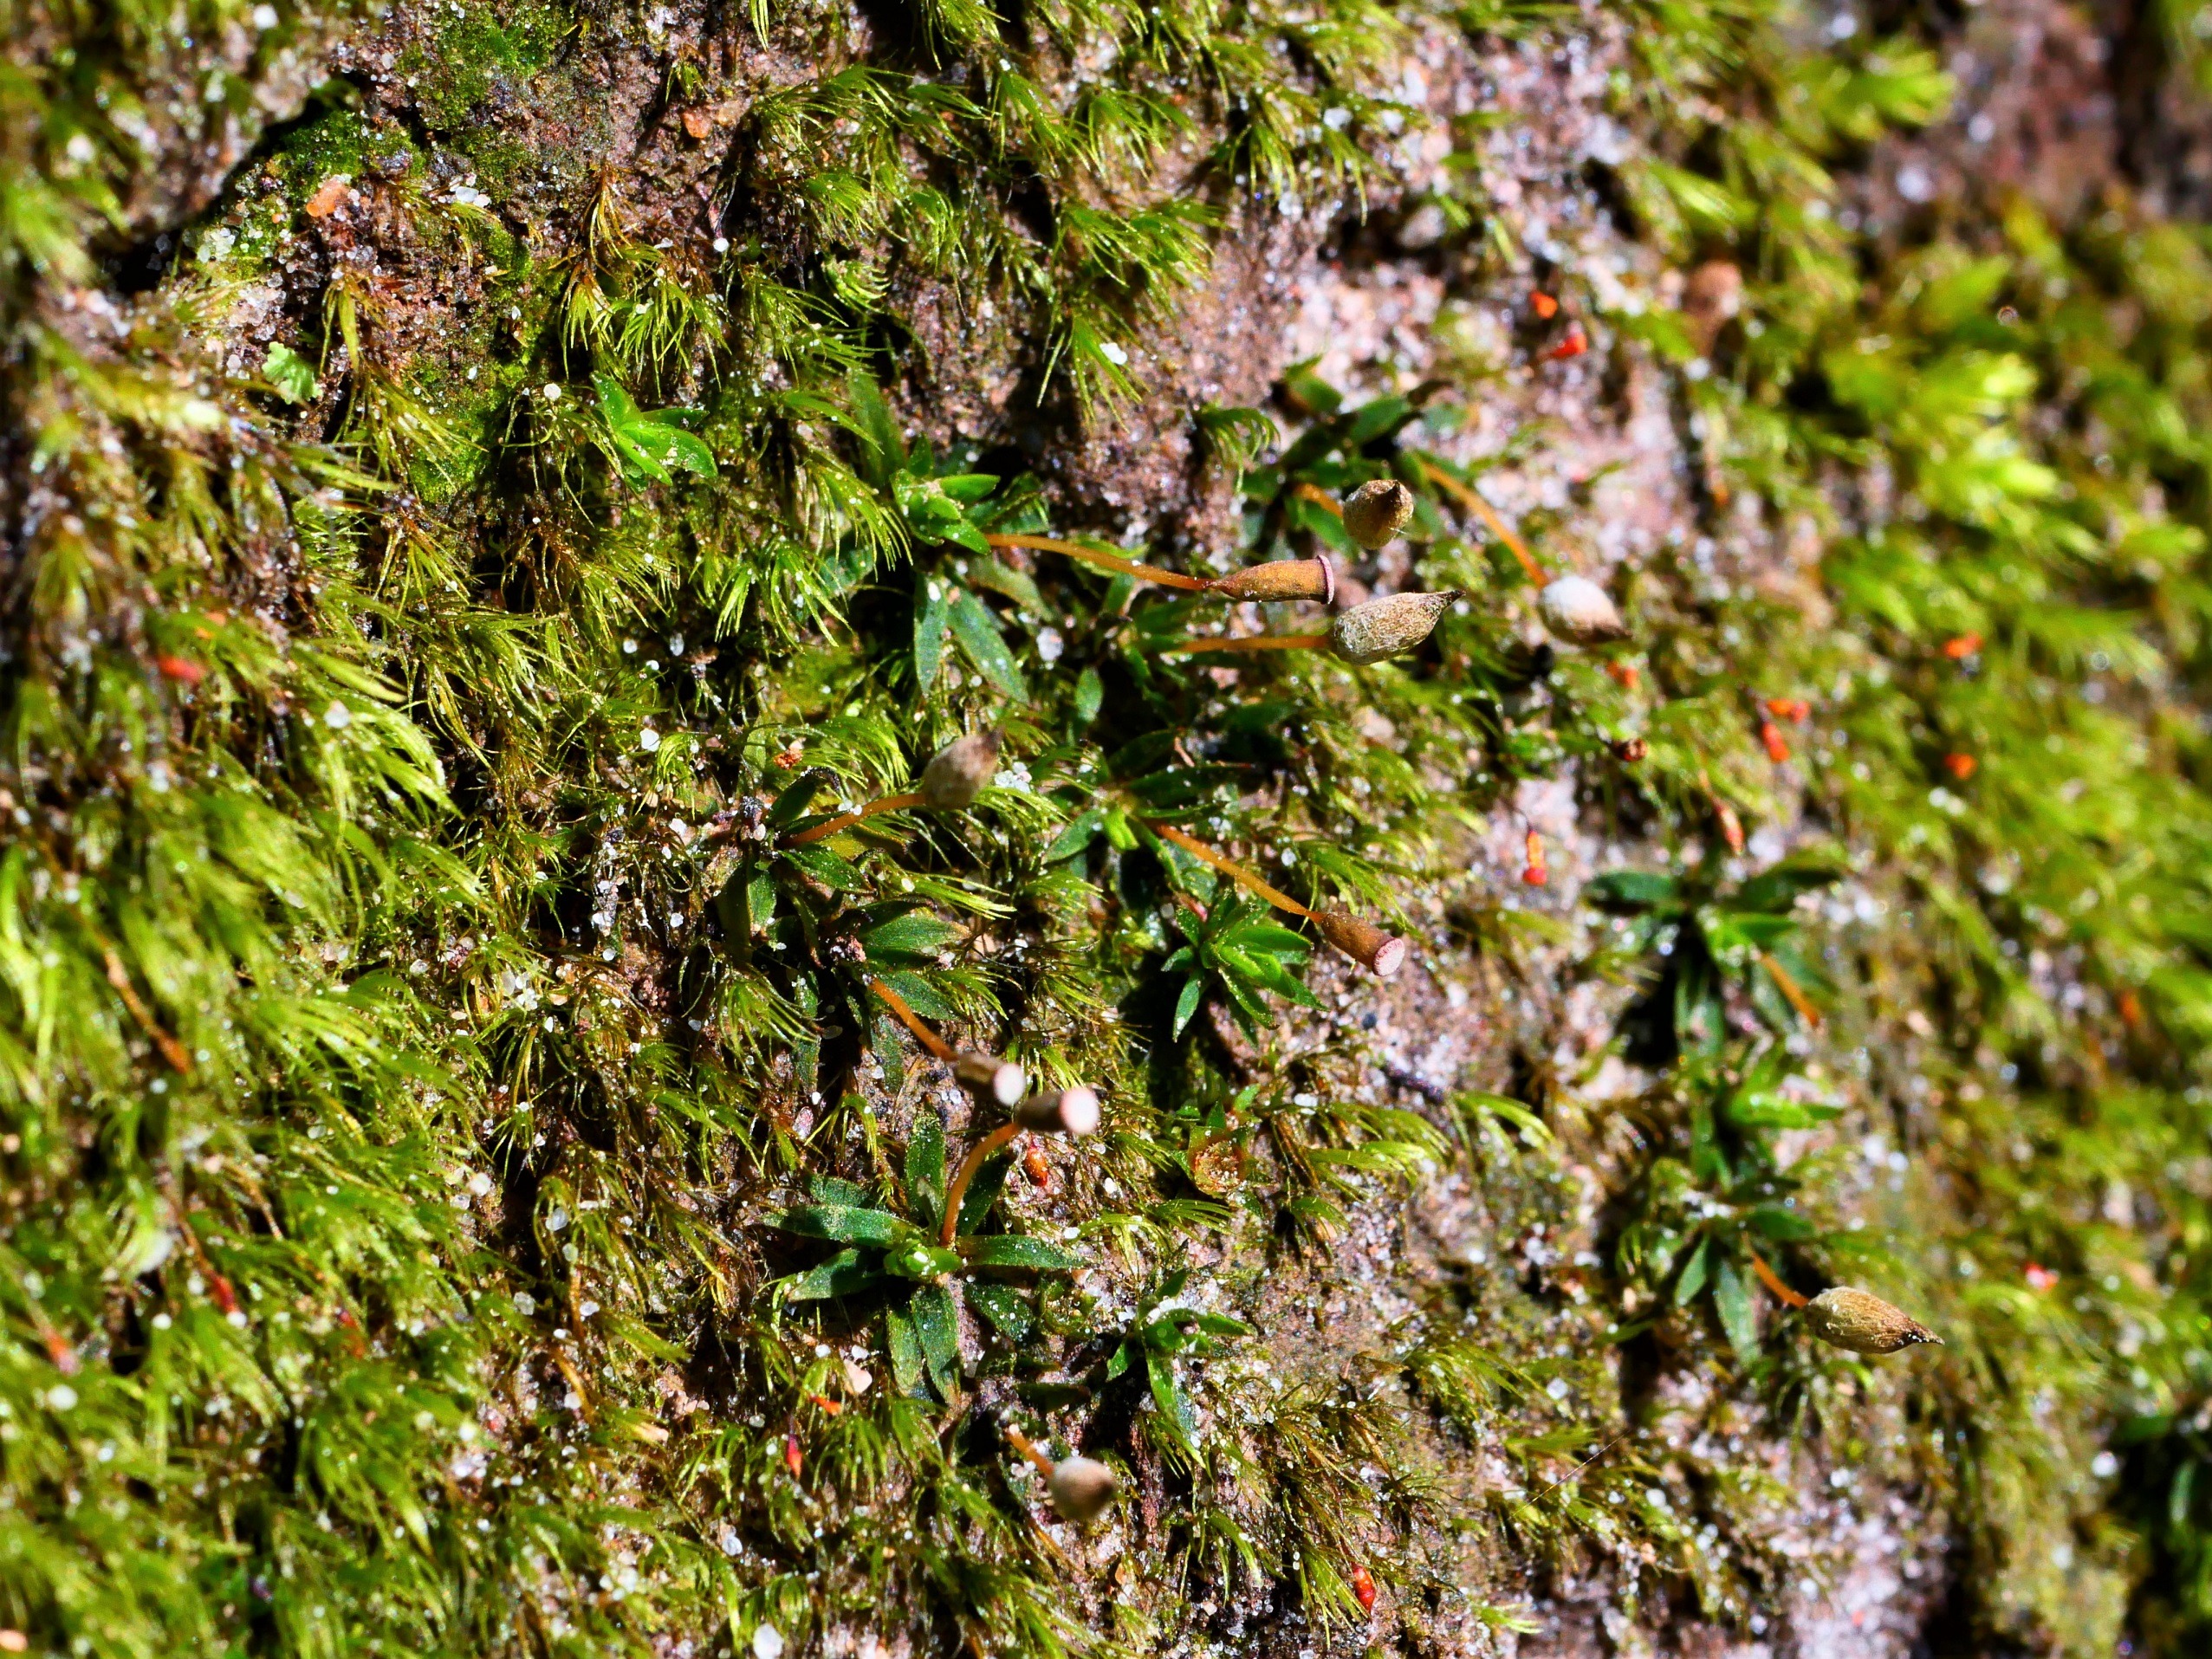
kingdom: Plantae
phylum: Bryophyta
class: Polytrichopsida
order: Polytrichales
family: Polytrichaceae
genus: Pogonatum
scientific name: Pogonatum aloides
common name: Smal urnekapsel
